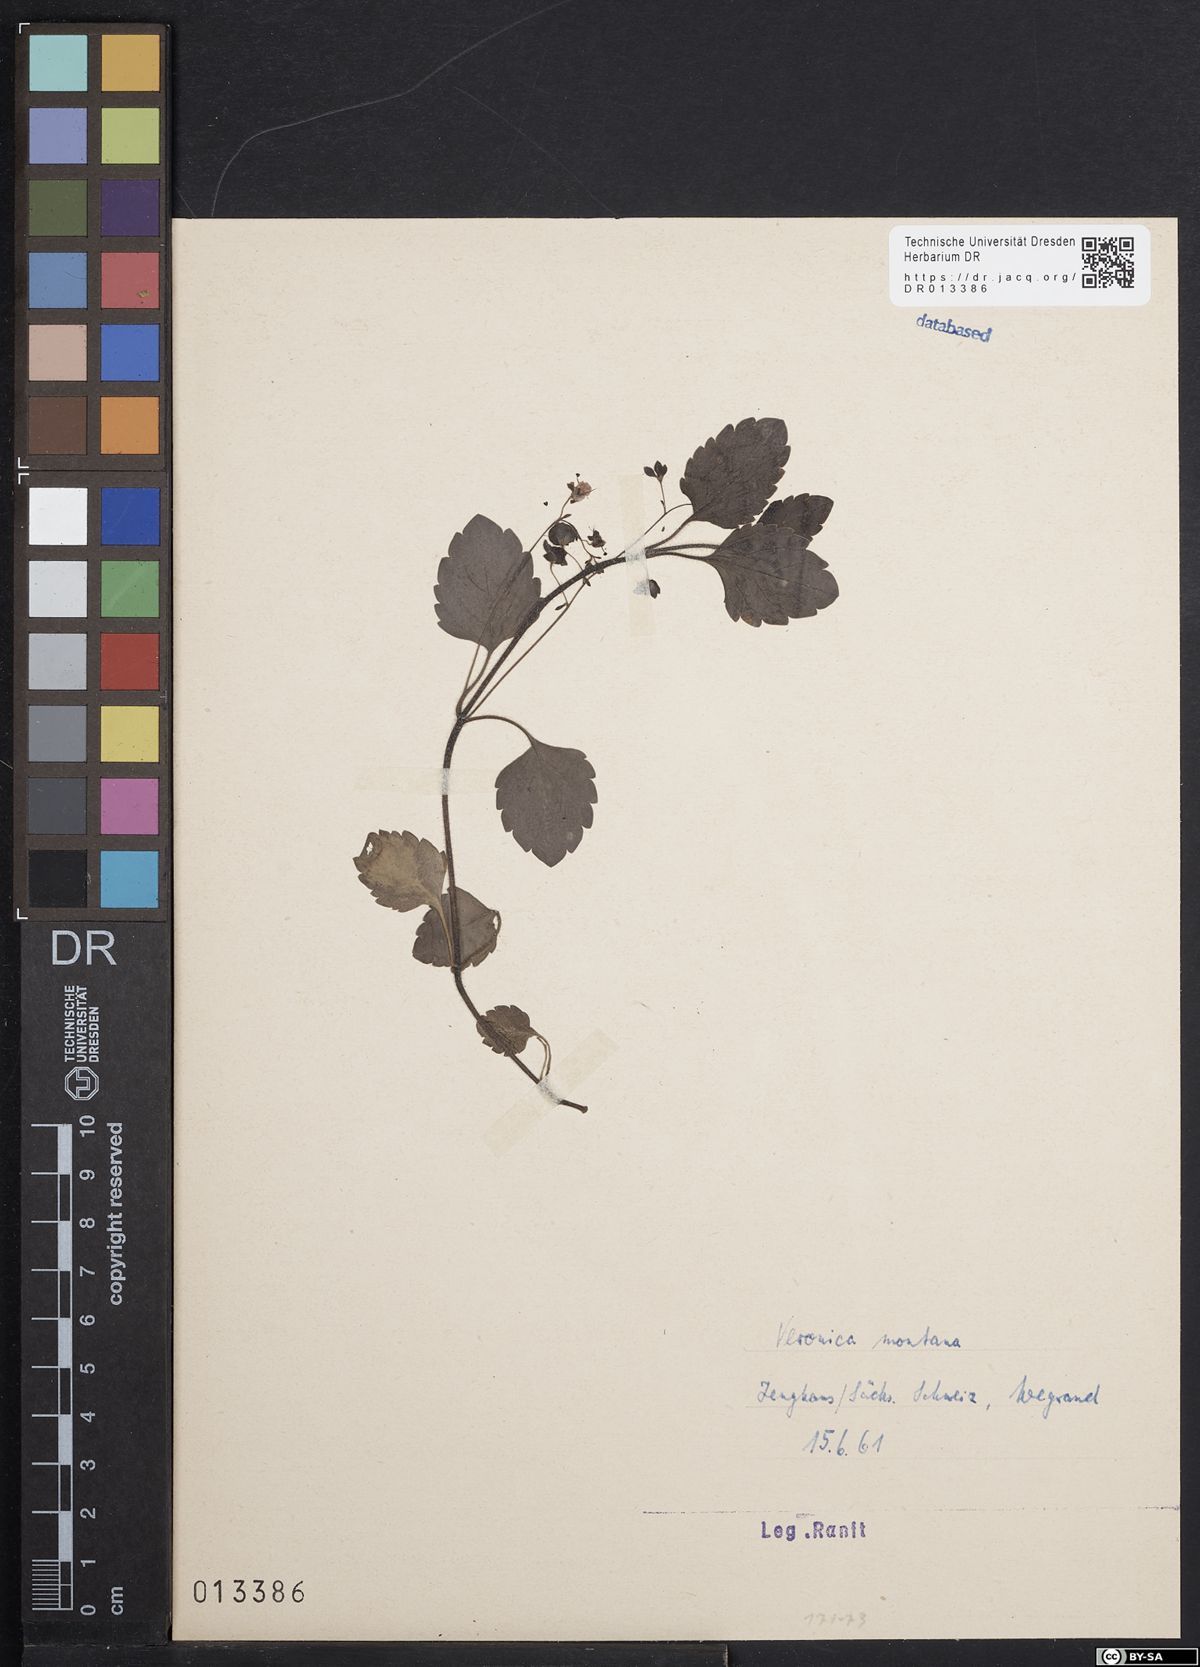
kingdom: Plantae
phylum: Tracheophyta
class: Magnoliopsida
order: Lamiales
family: Plantaginaceae
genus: Veronica
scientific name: Veronica montana
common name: Wood speedwell
